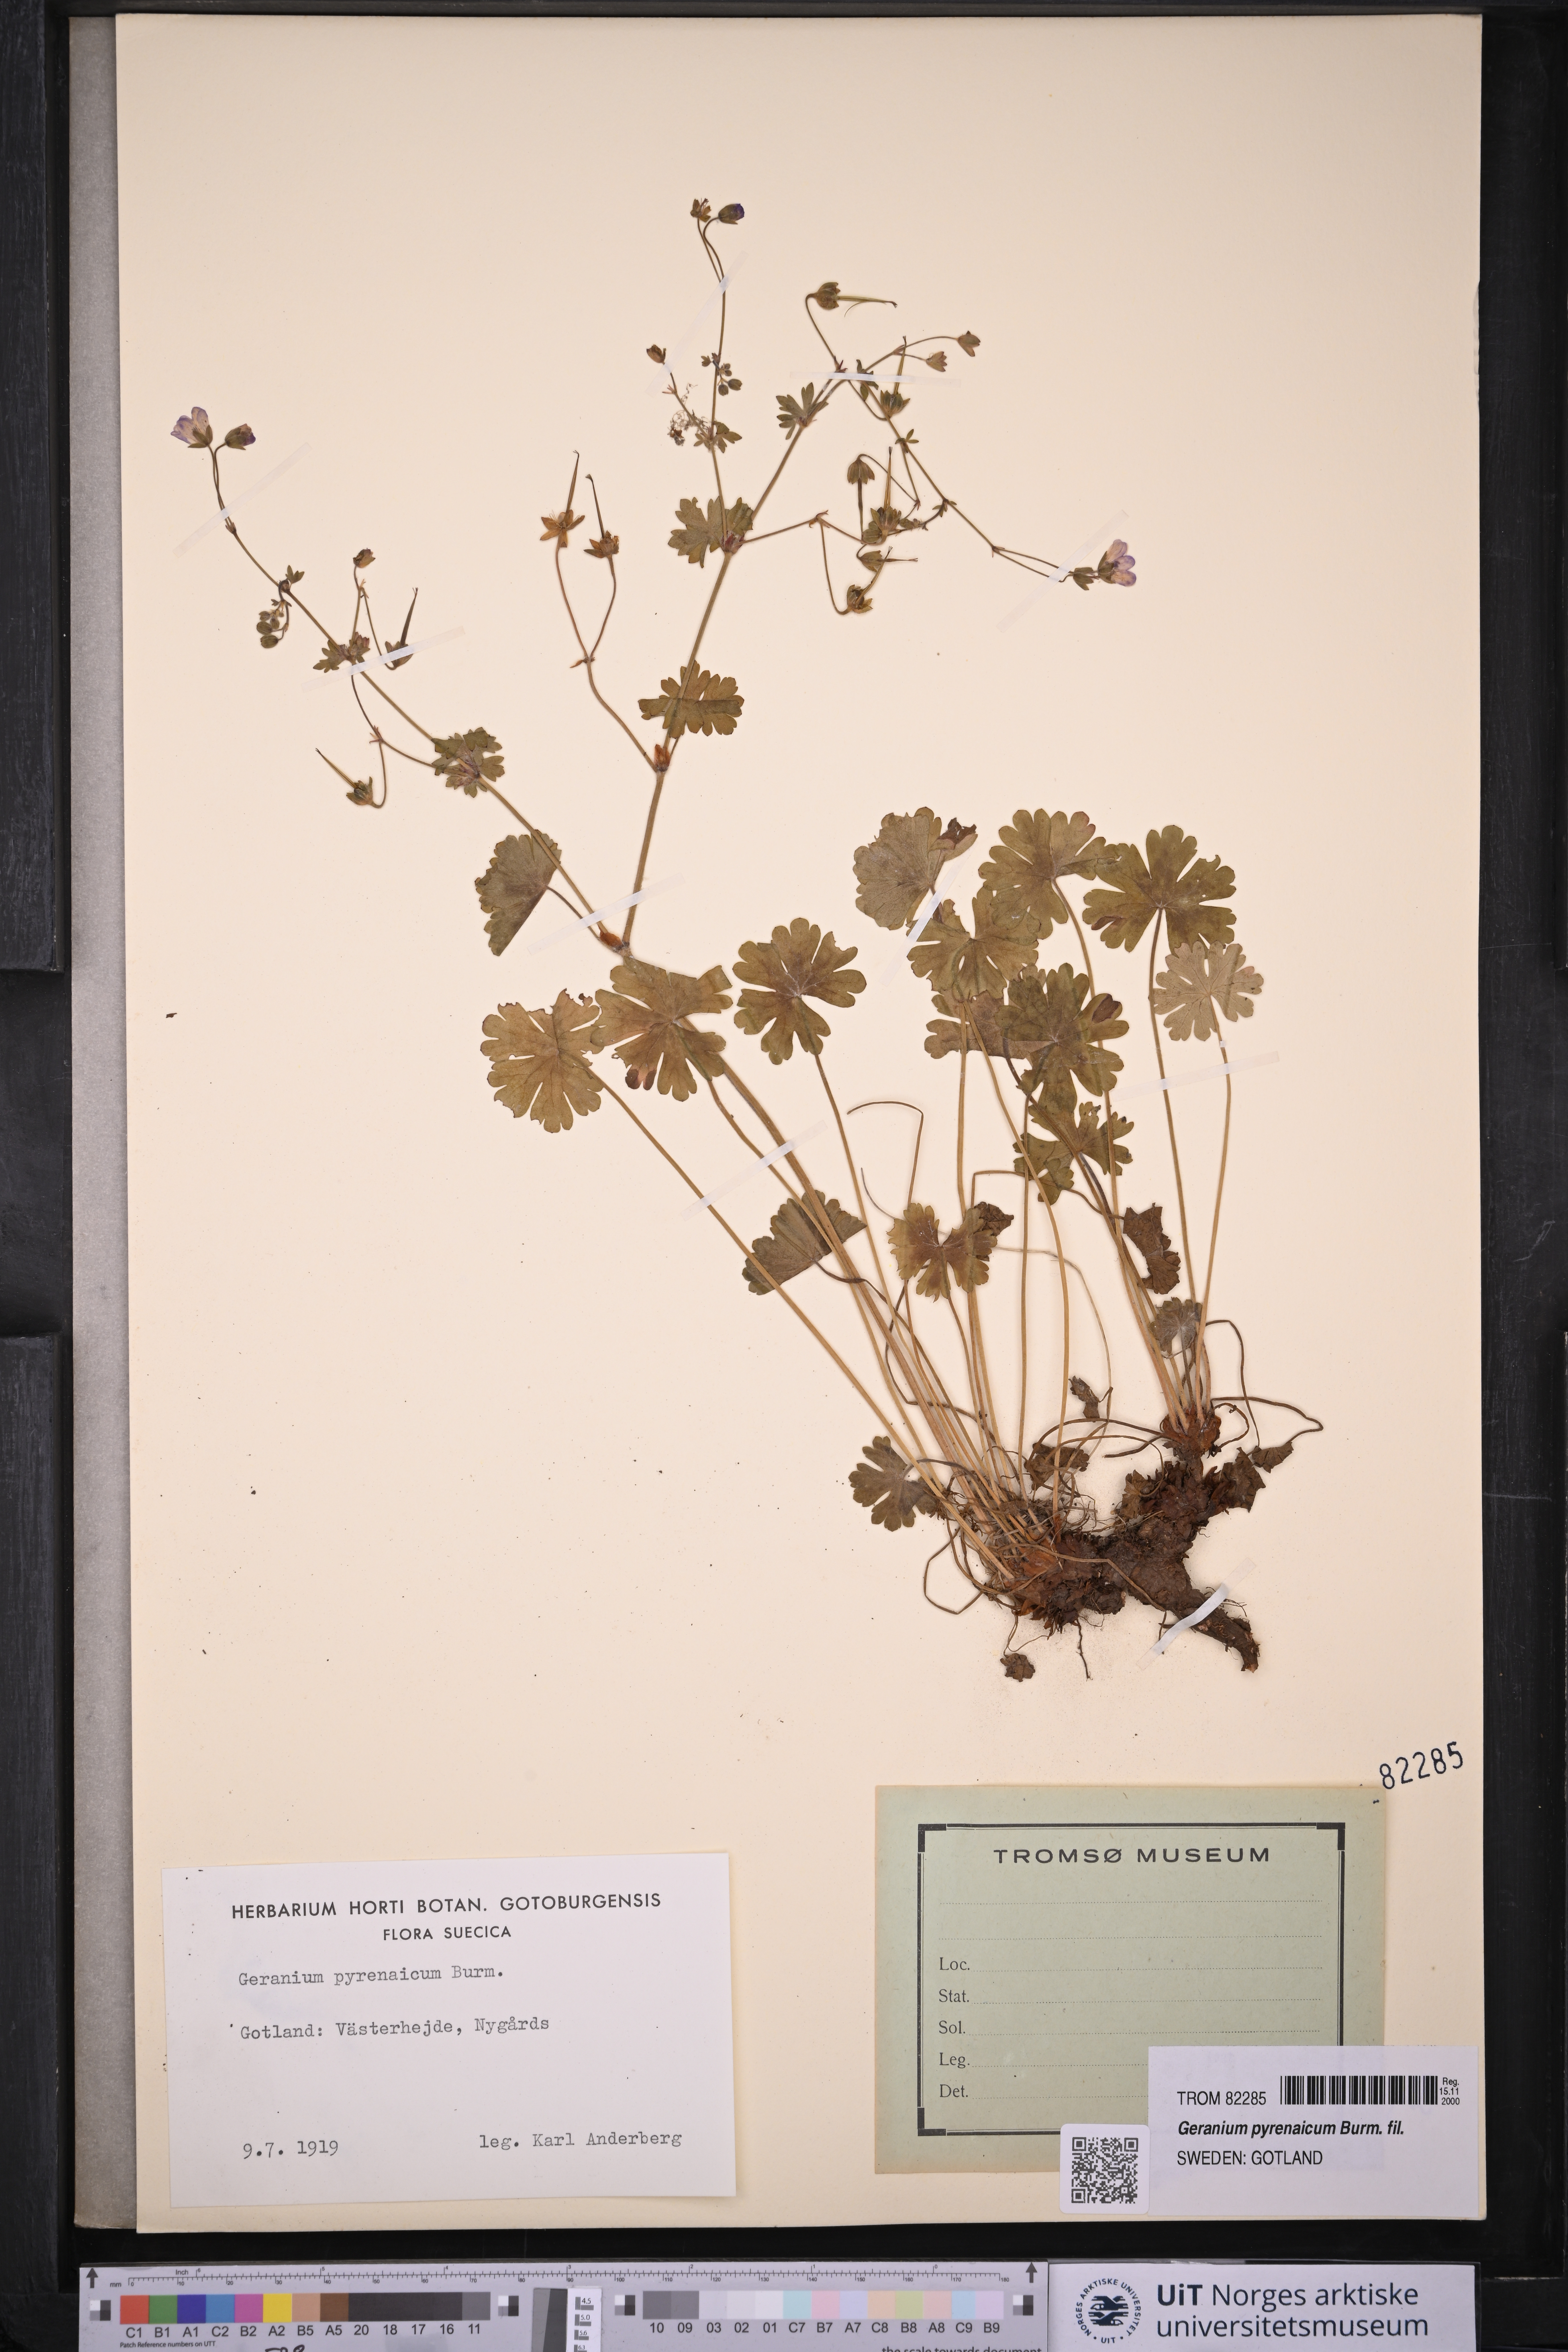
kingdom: Plantae
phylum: Tracheophyta
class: Magnoliopsida
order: Geraniales
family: Geraniaceae
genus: Geranium
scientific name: Geranium pyrenaicum
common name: Hedgerow crane's-bill
